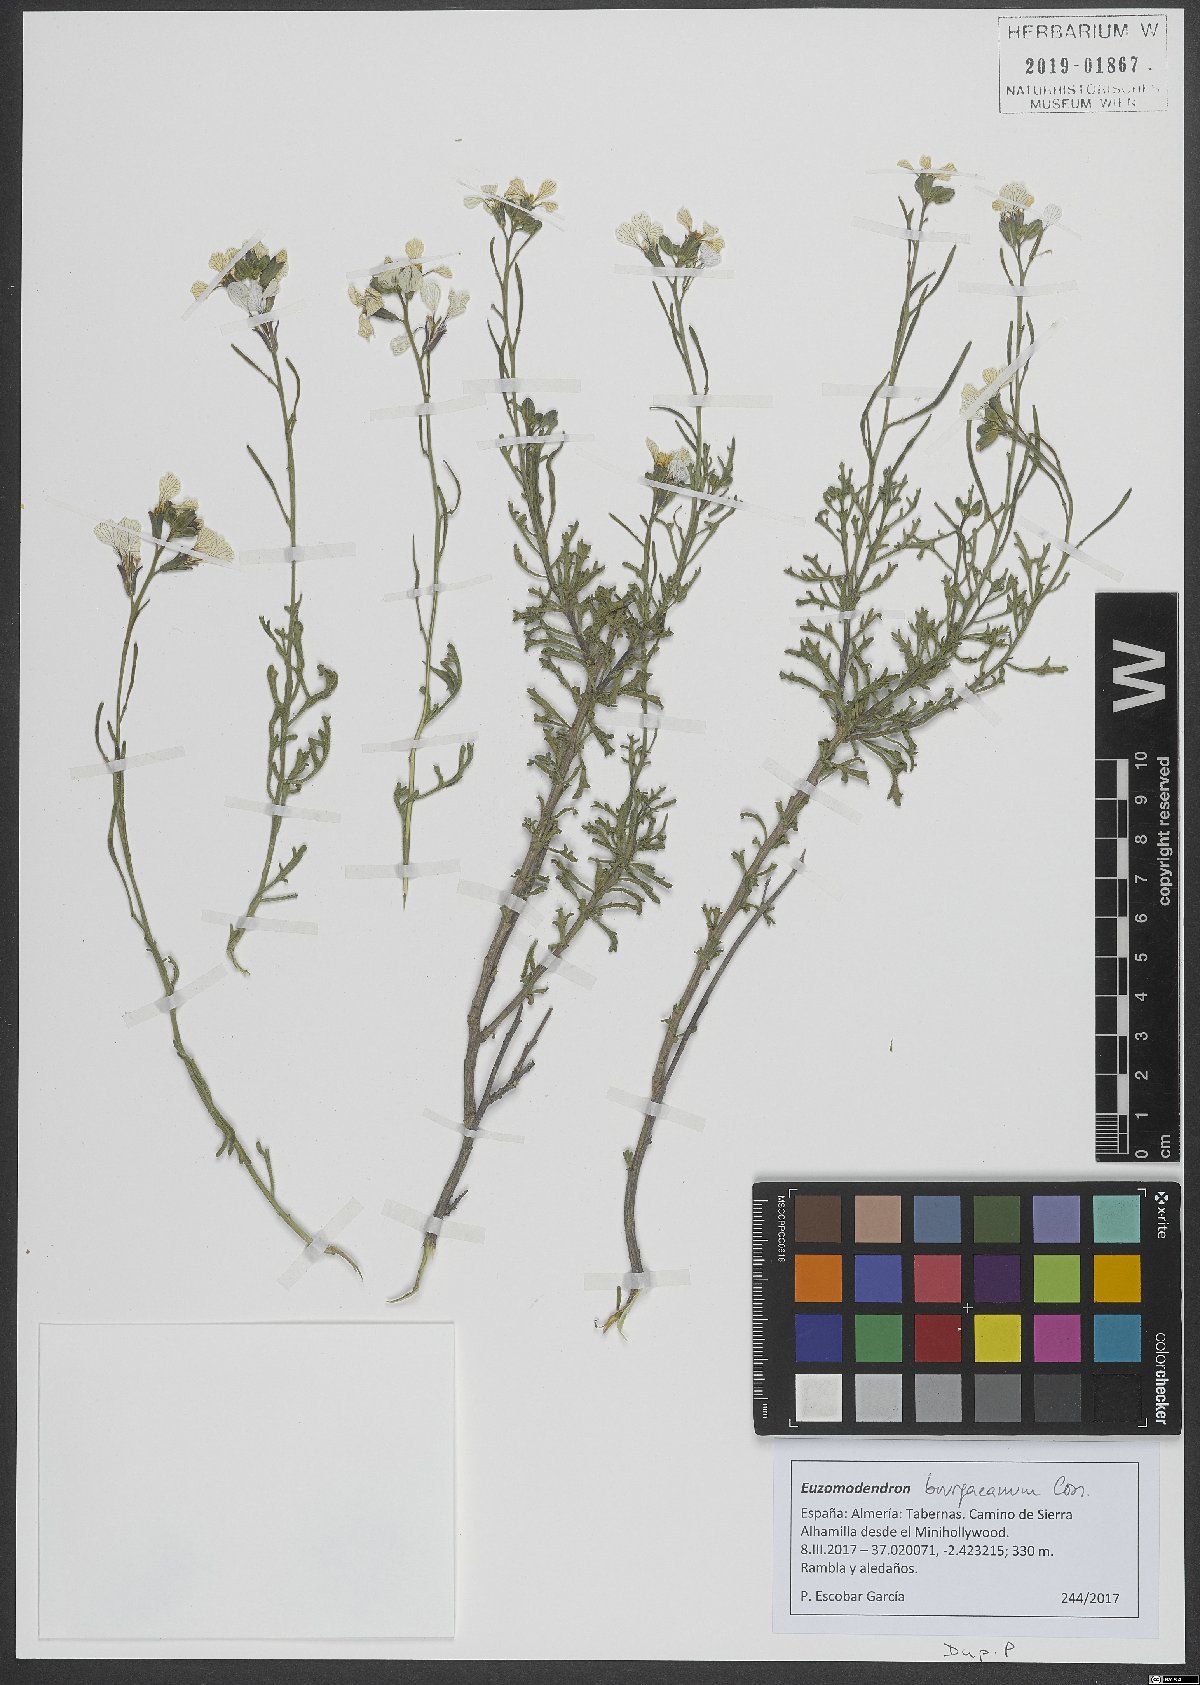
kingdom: Plantae
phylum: Tracheophyta
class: Magnoliopsida
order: Brassicales
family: Brassicaceae
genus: Vella
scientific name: Vella bourgaeana
